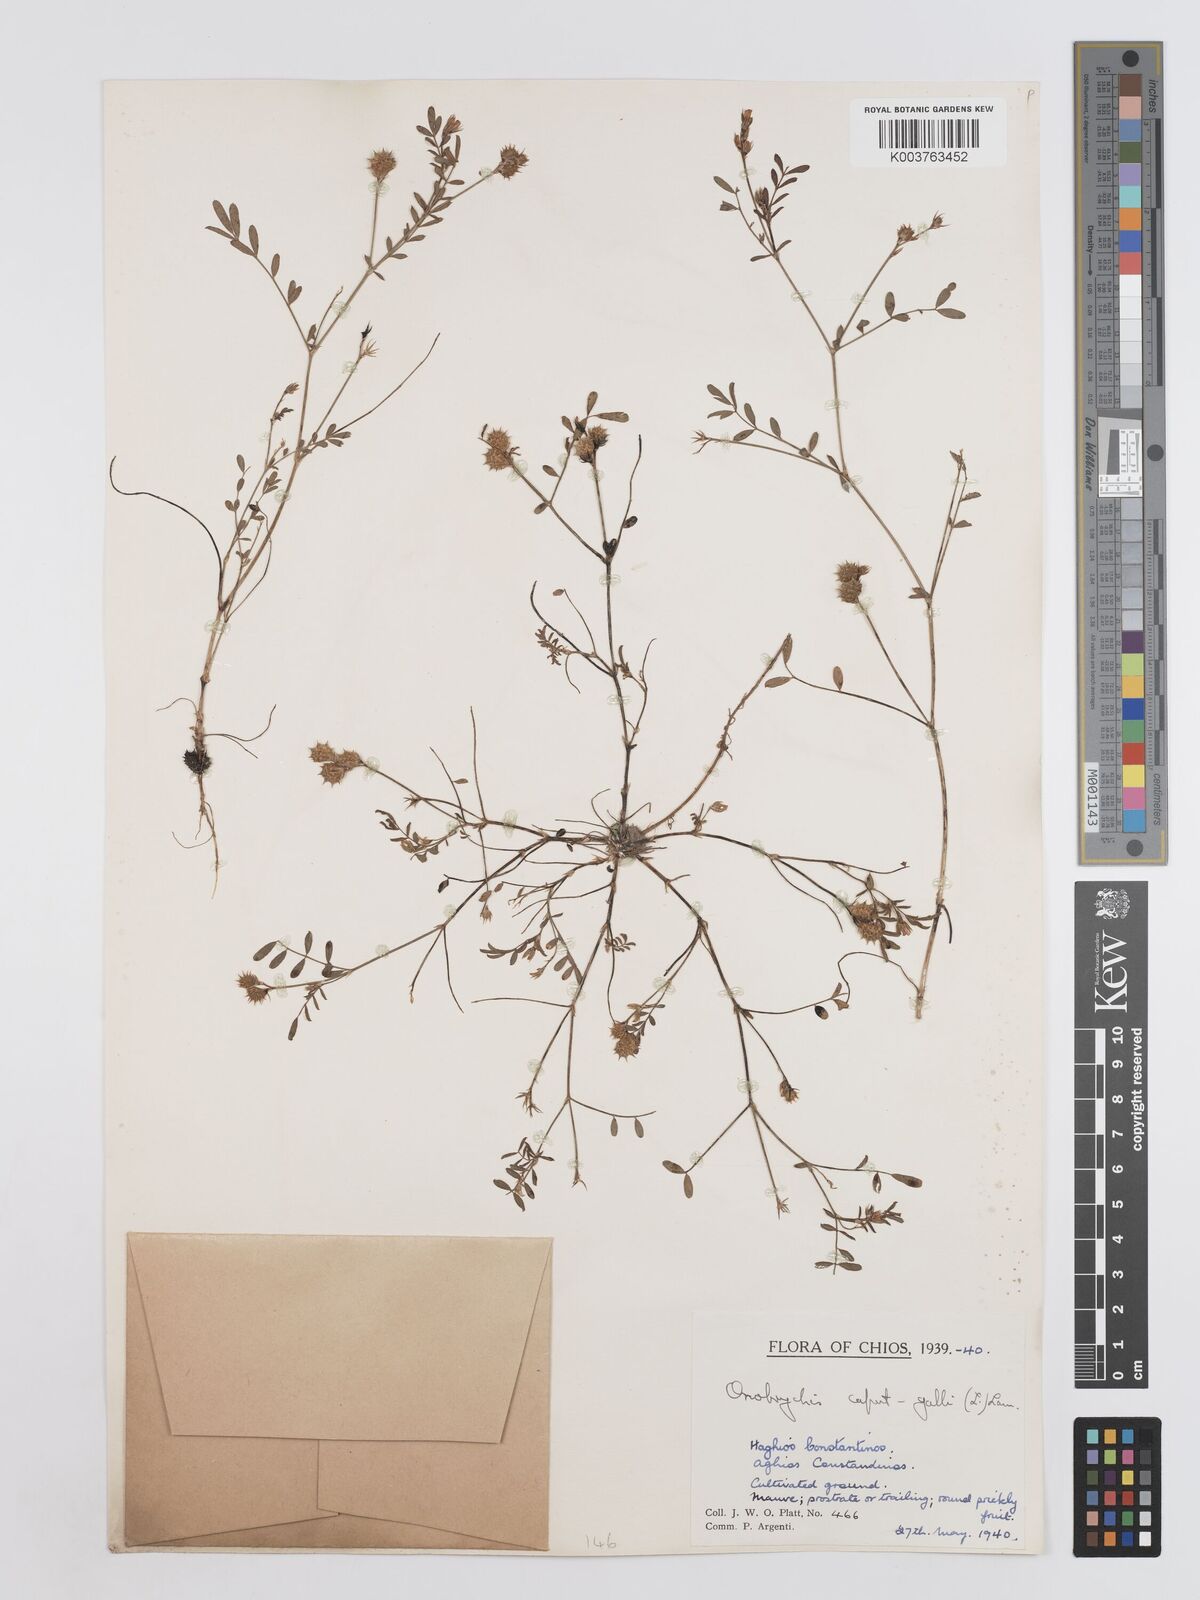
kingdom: Plantae
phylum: Tracheophyta
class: Magnoliopsida
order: Fabales
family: Fabaceae
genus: Onobrychis
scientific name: Onobrychis caput-galli
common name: Cockscomb sainfoin
